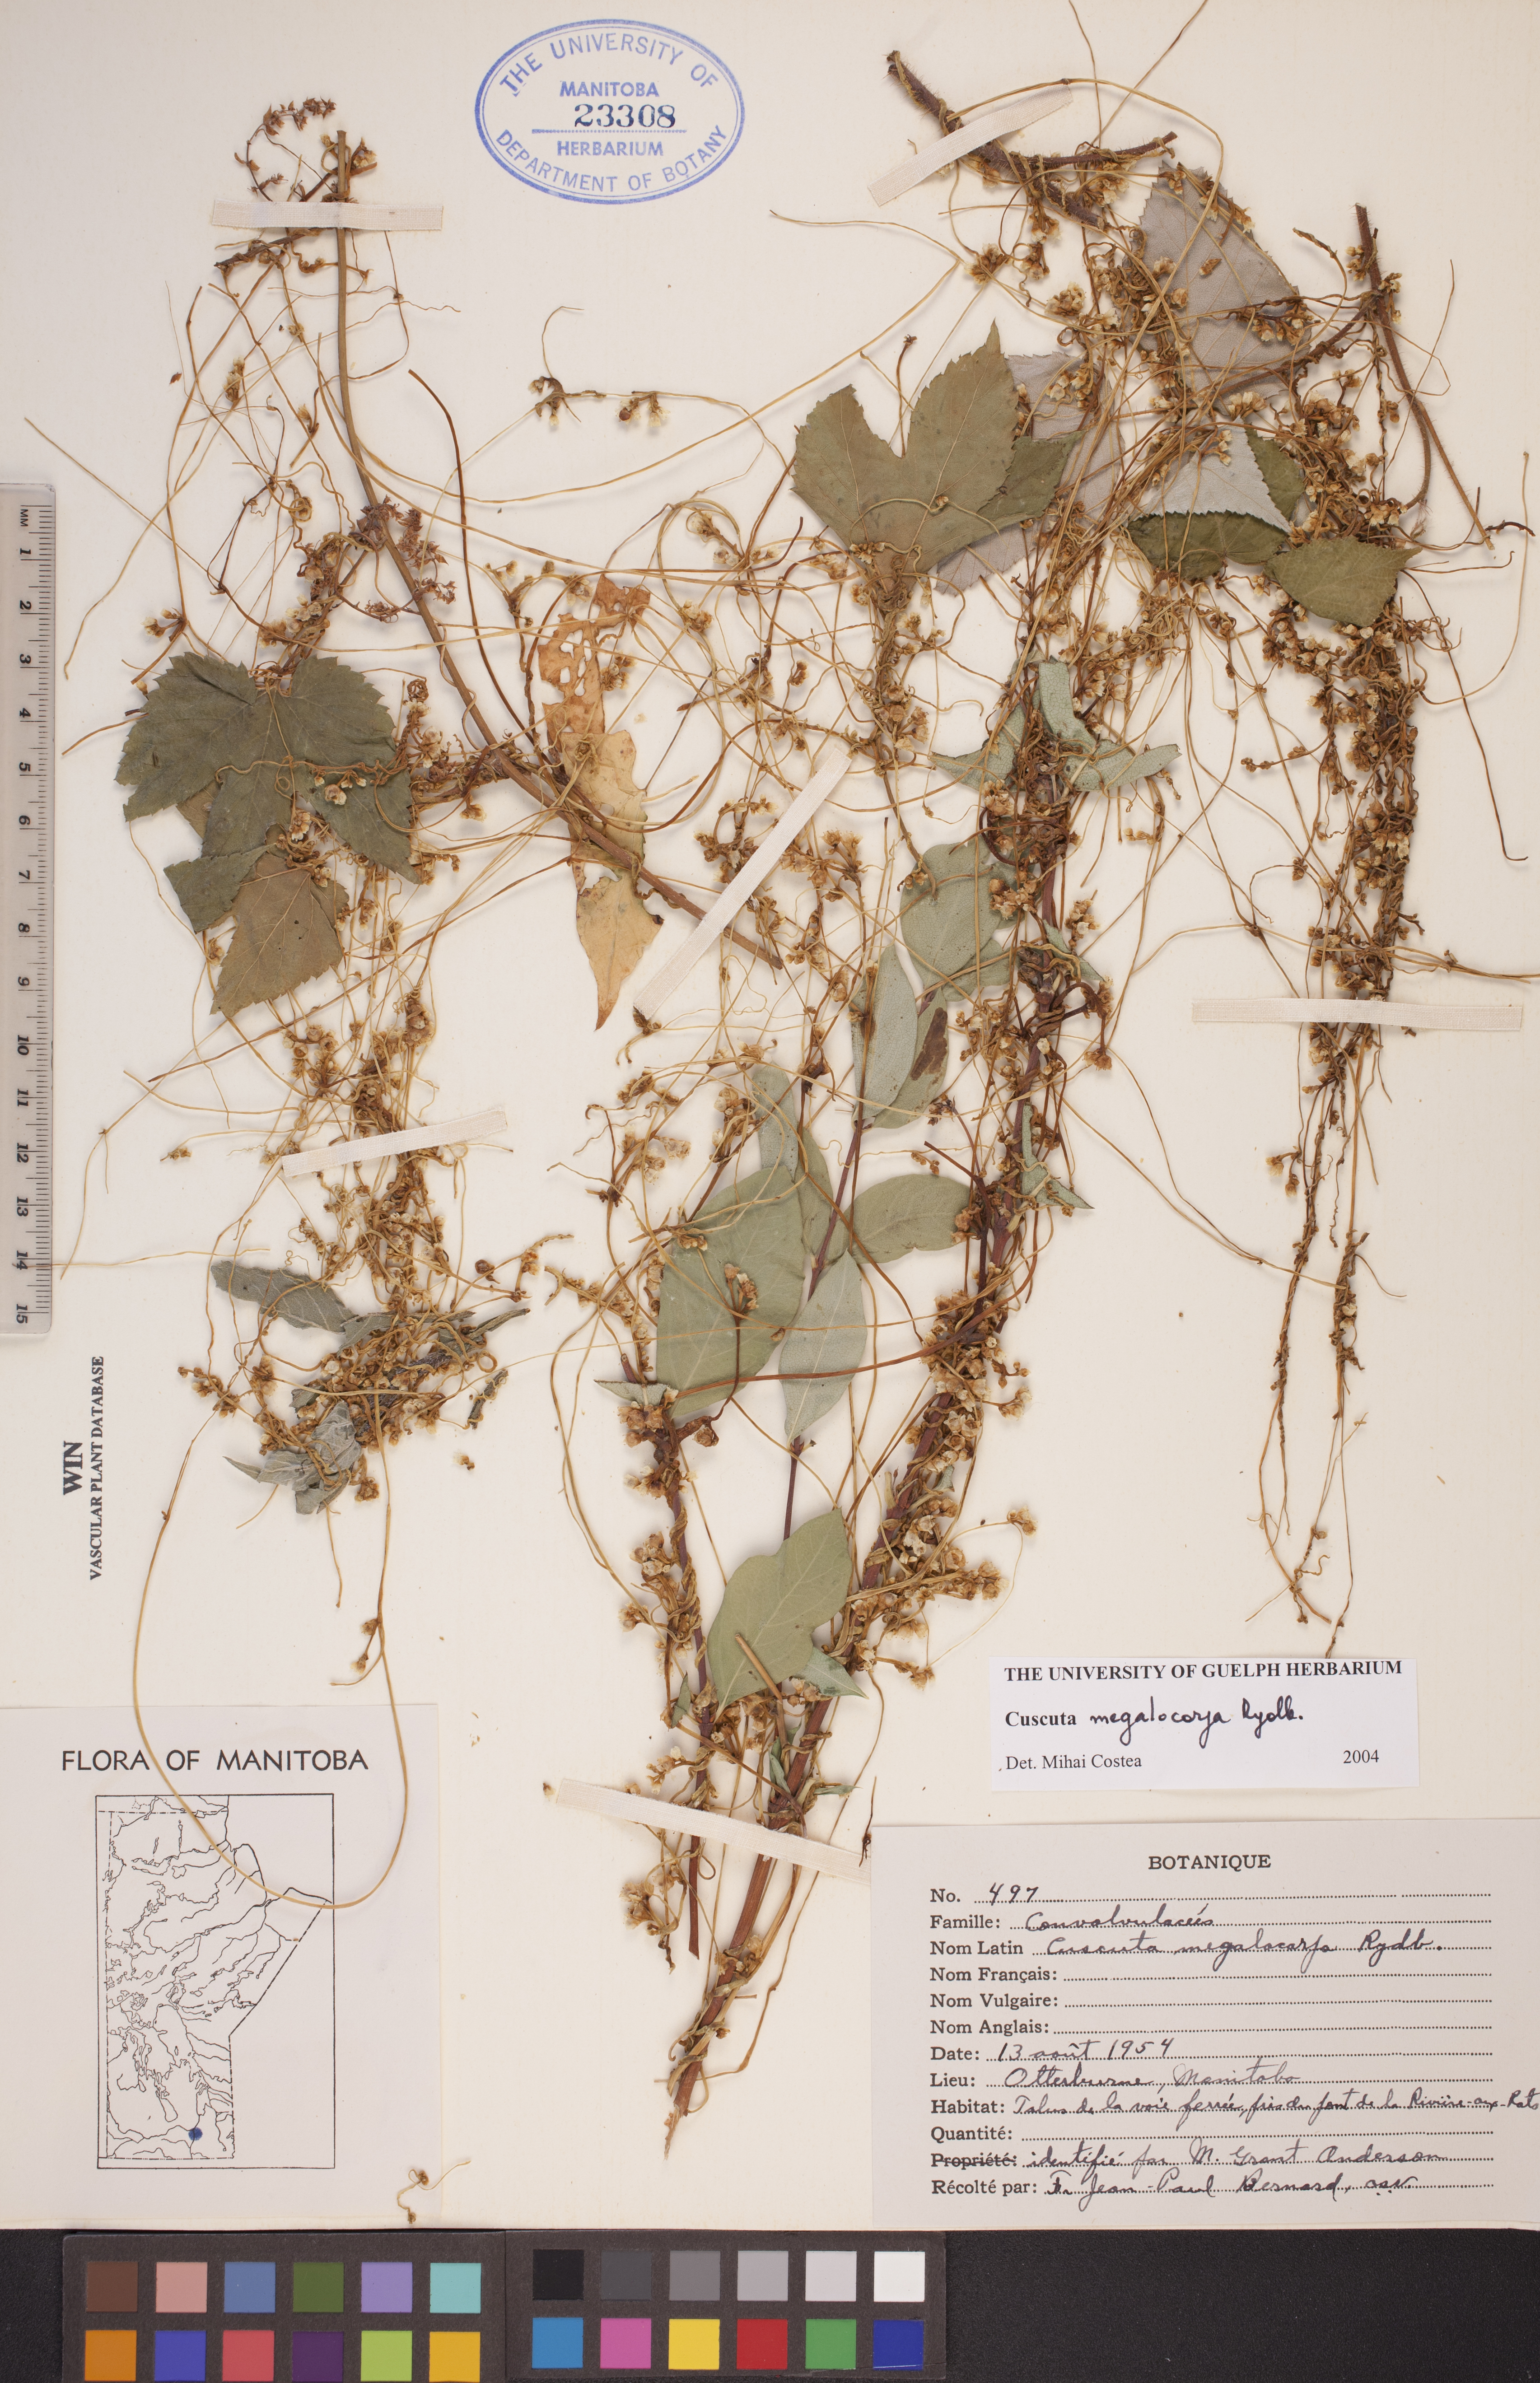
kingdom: Plantae
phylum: Tracheophyta
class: Magnoliopsida
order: Solanales
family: Convolvulaceae
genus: Cuscuta
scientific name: Cuscuta umbrosa
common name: Bigfruit dodder
